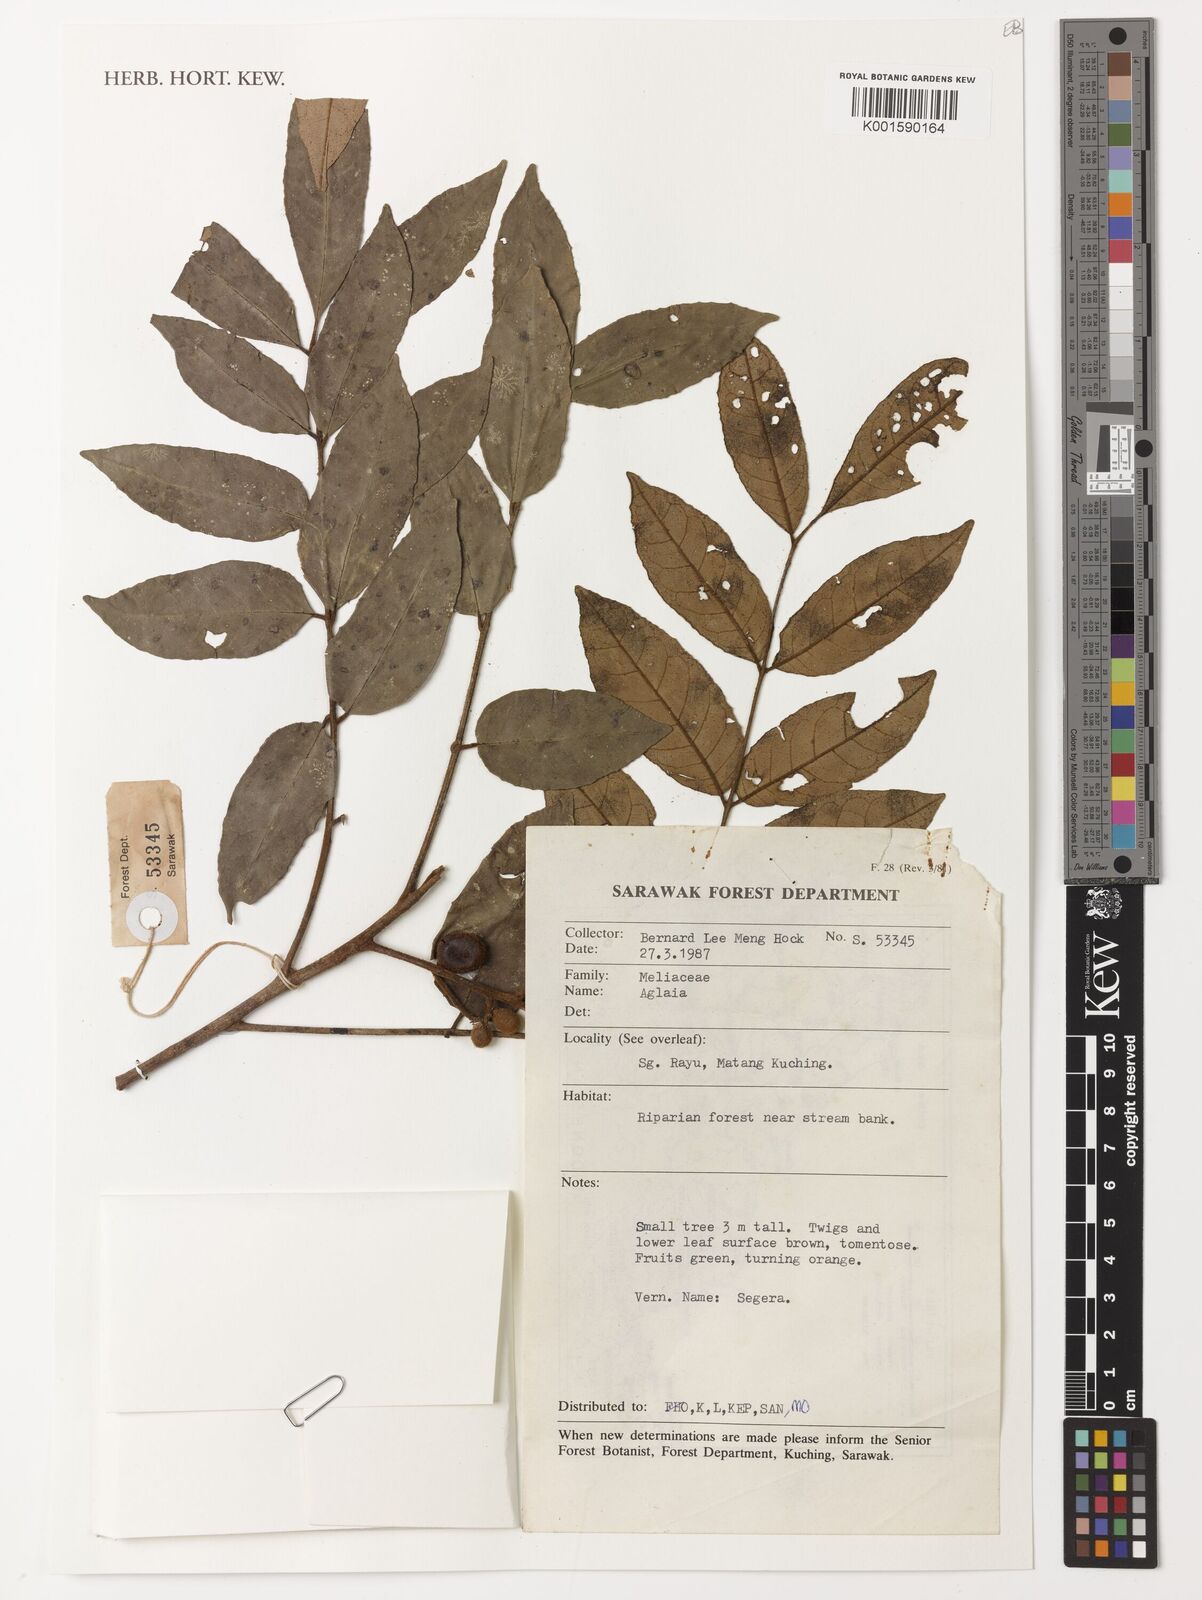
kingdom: Plantae
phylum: Tracheophyta
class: Magnoliopsida
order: Sapindales
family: Meliaceae
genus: Aglaia
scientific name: Aglaia
